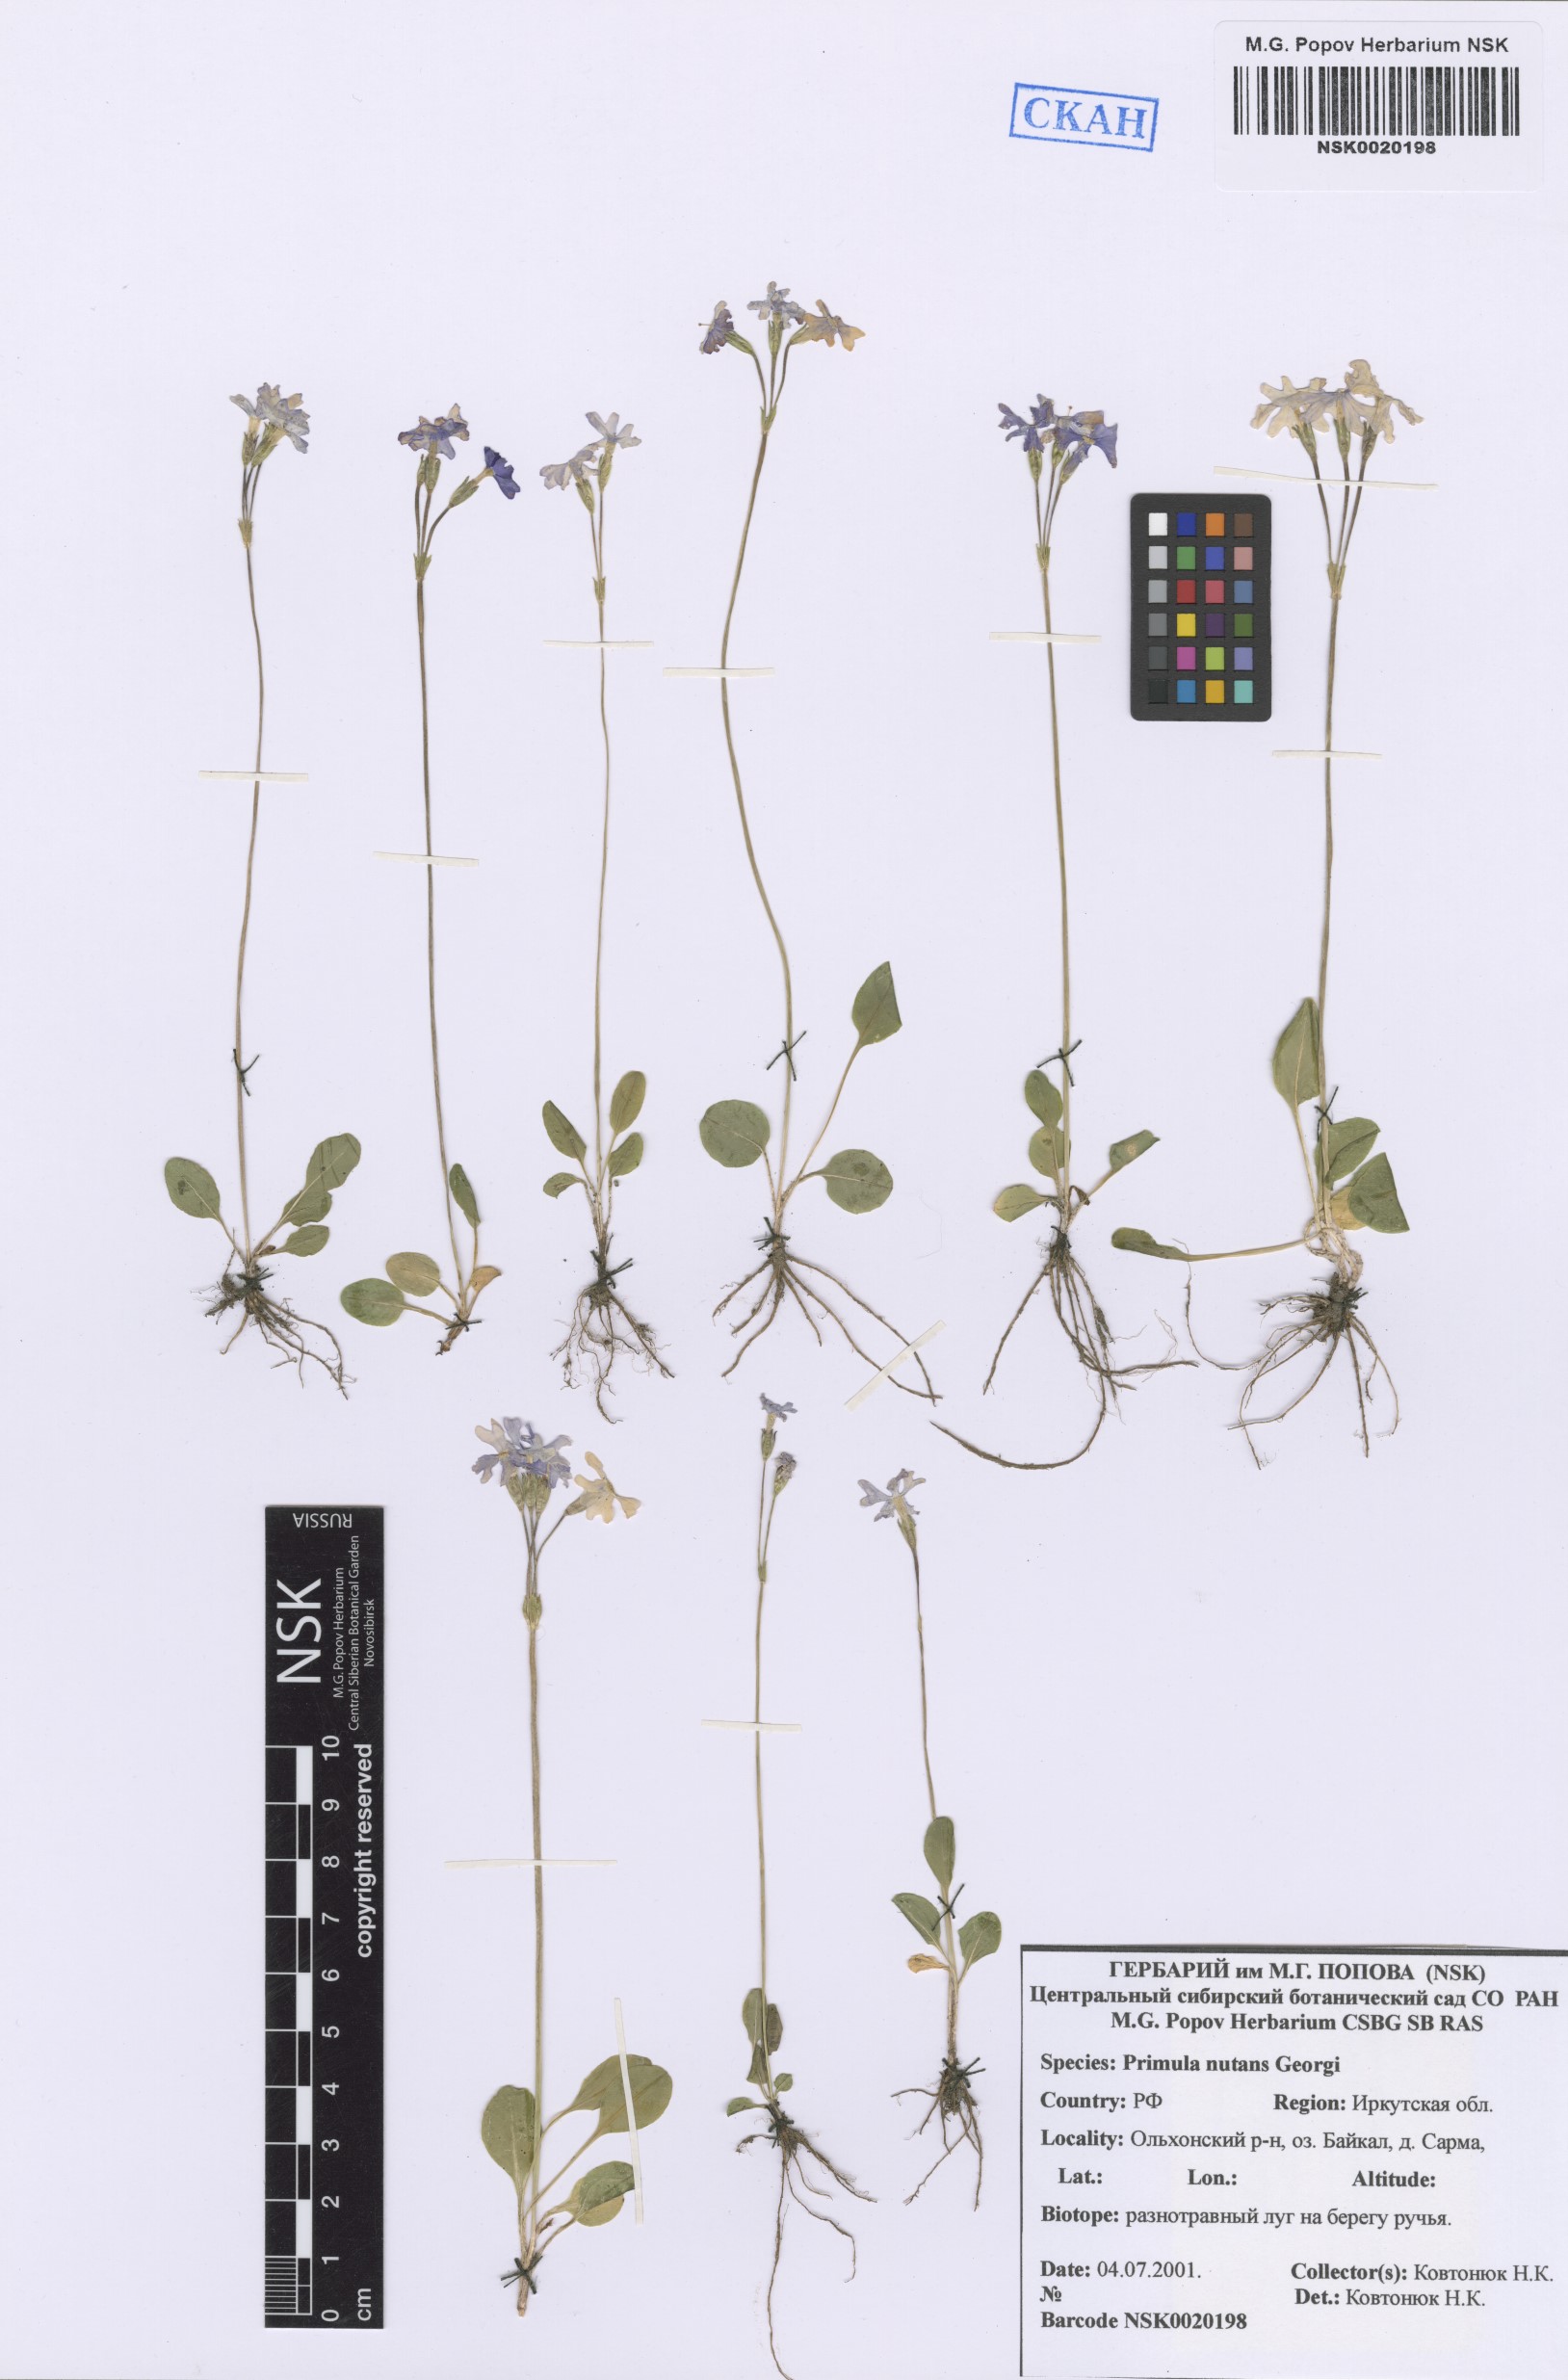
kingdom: Plantae
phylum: Tracheophyta
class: Magnoliopsida
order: Ericales
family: Primulaceae
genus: Primula
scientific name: Primula nutans
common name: Siberian primrose
